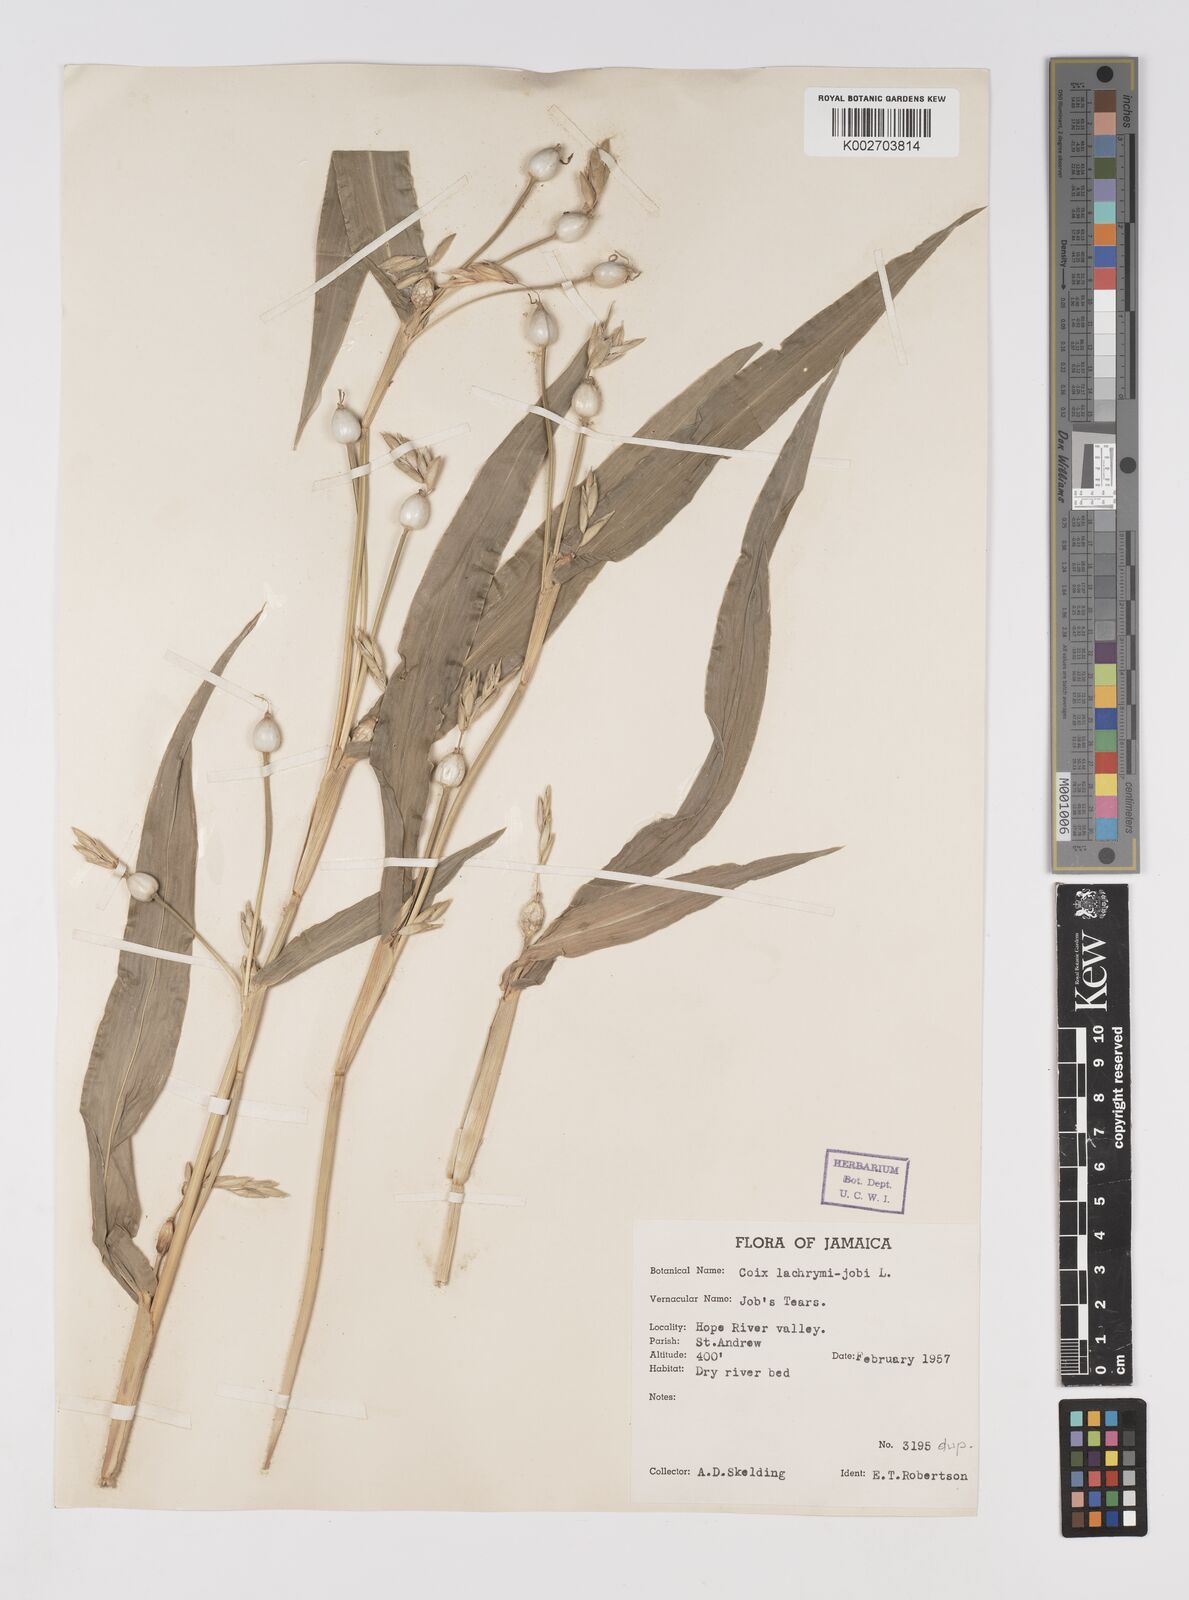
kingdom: Plantae
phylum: Tracheophyta
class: Liliopsida
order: Poales
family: Poaceae
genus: Coix
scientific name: Coix lacryma-jobi
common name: Job's tears
